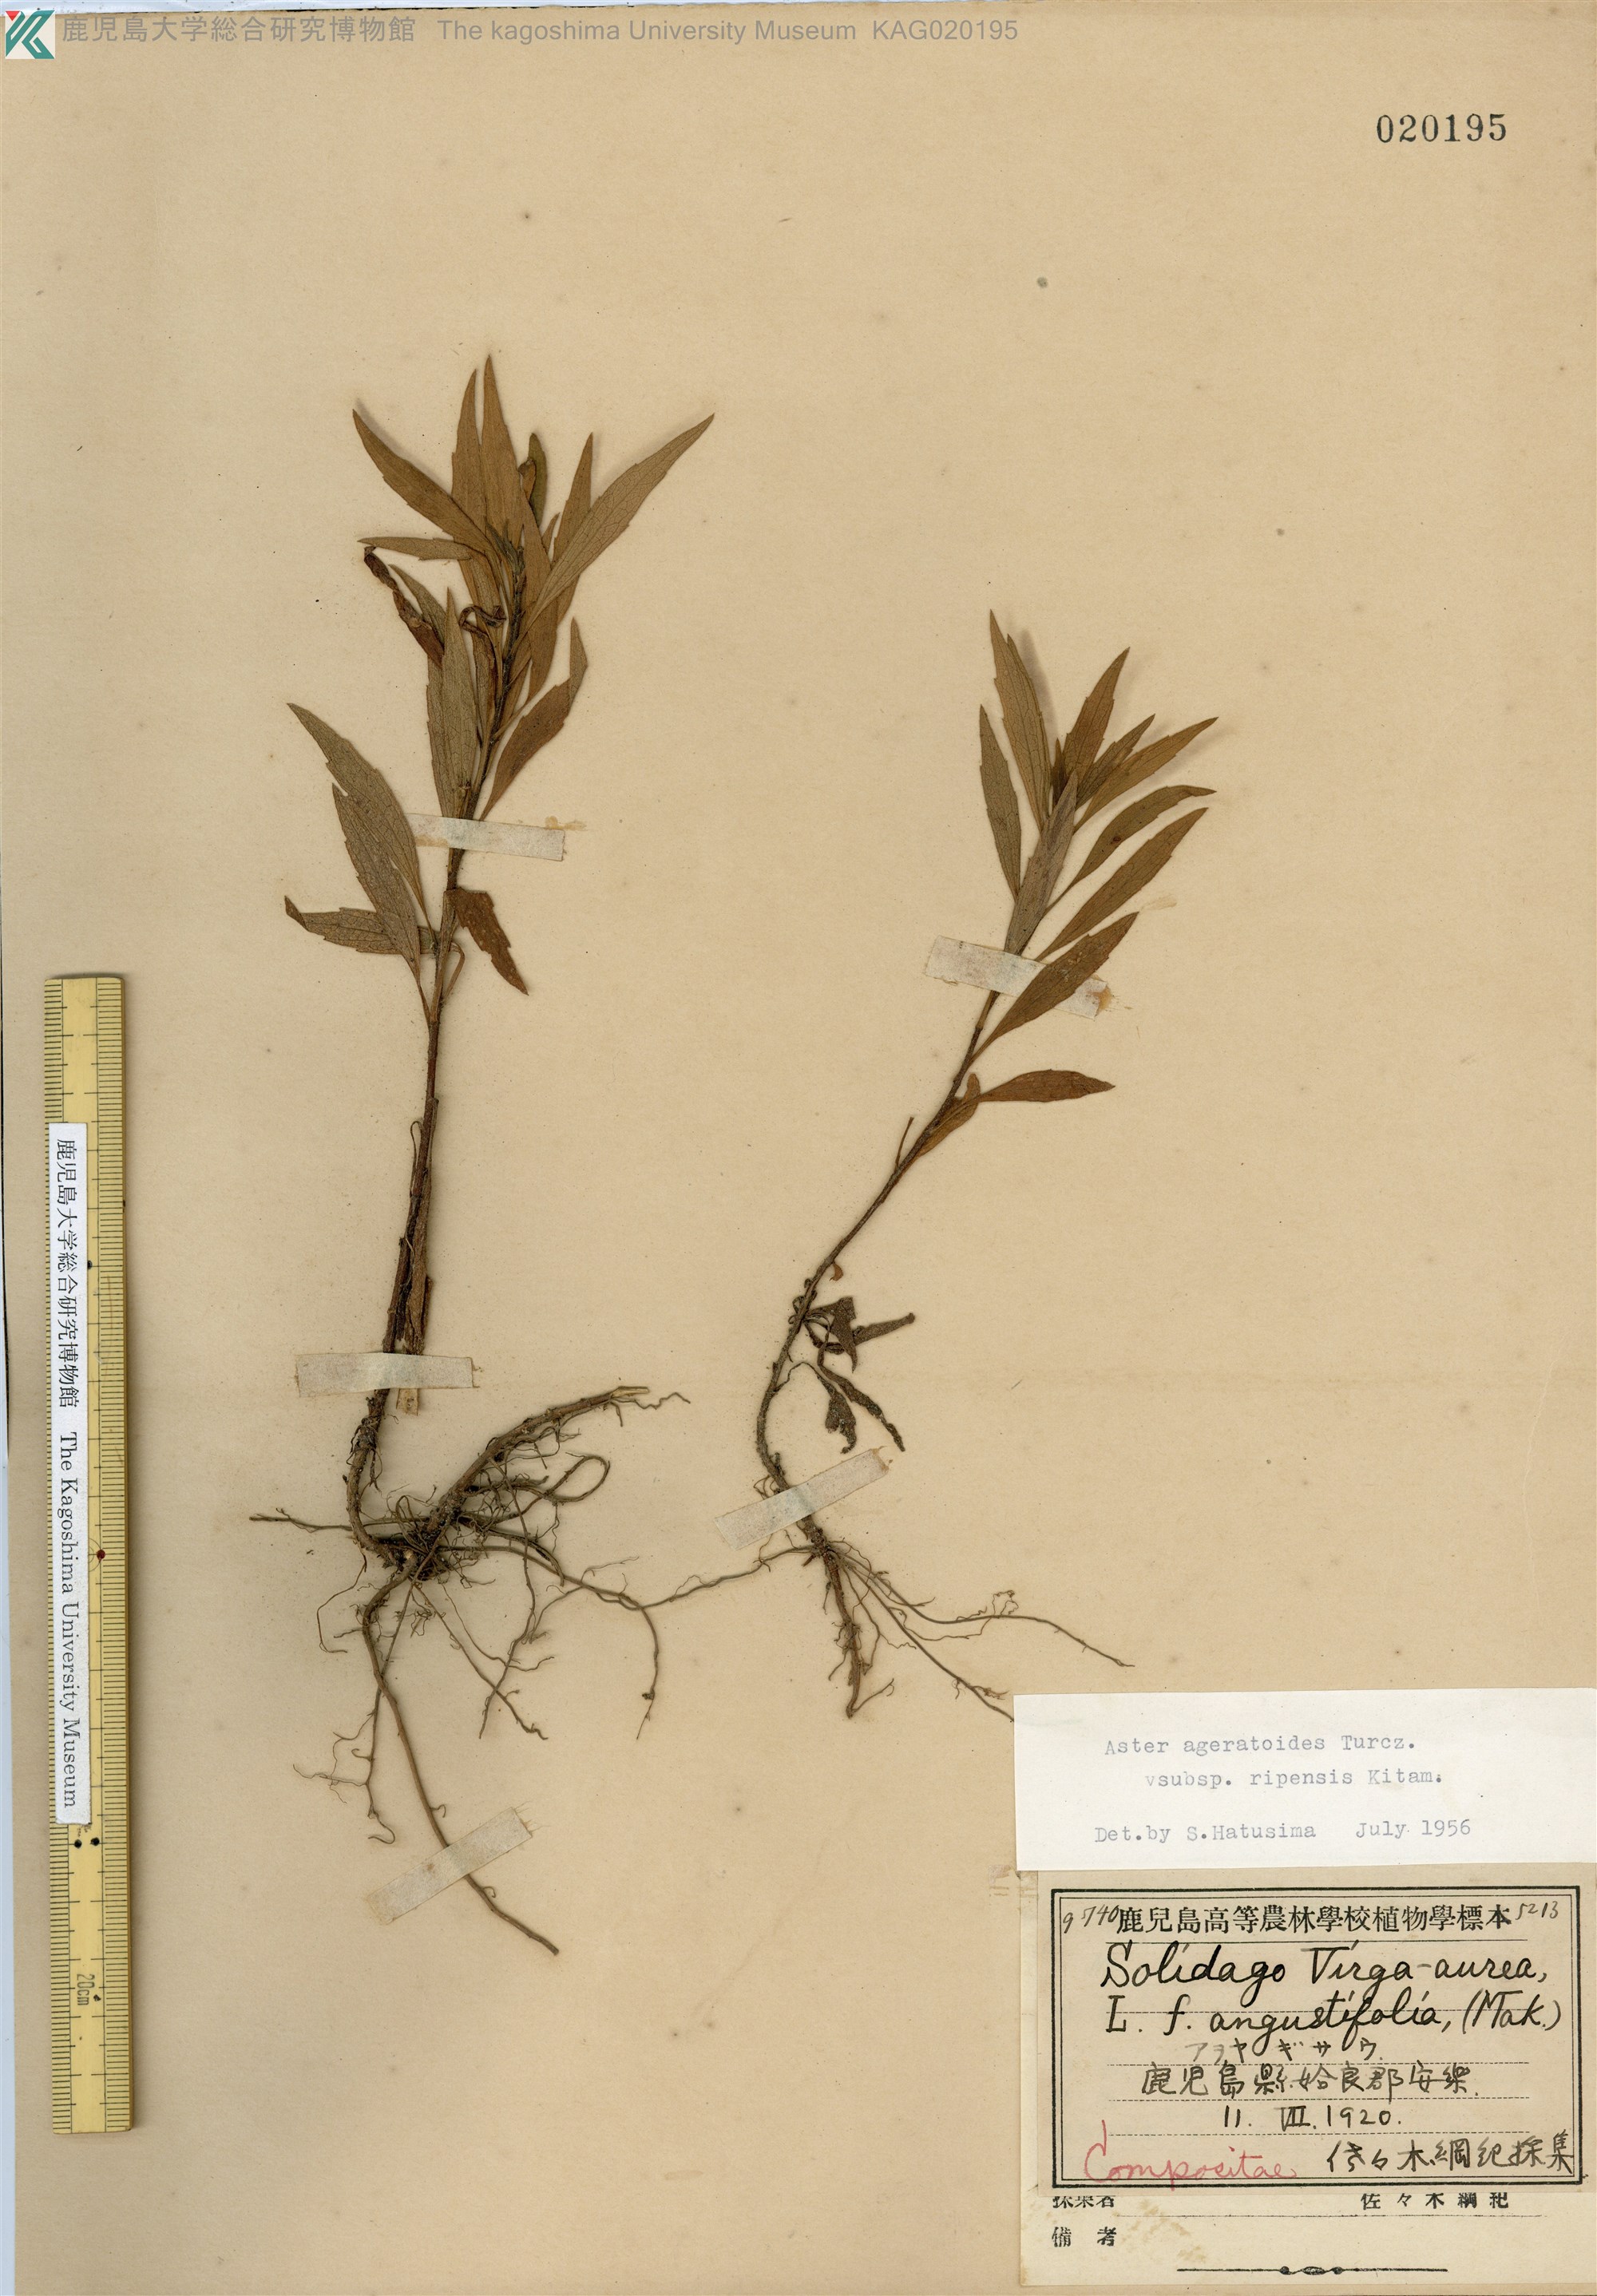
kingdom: Plantae
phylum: Tracheophyta
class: Magnoliopsida
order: Asterales
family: Asteraceae
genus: Aster
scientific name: Aster microcephalus
